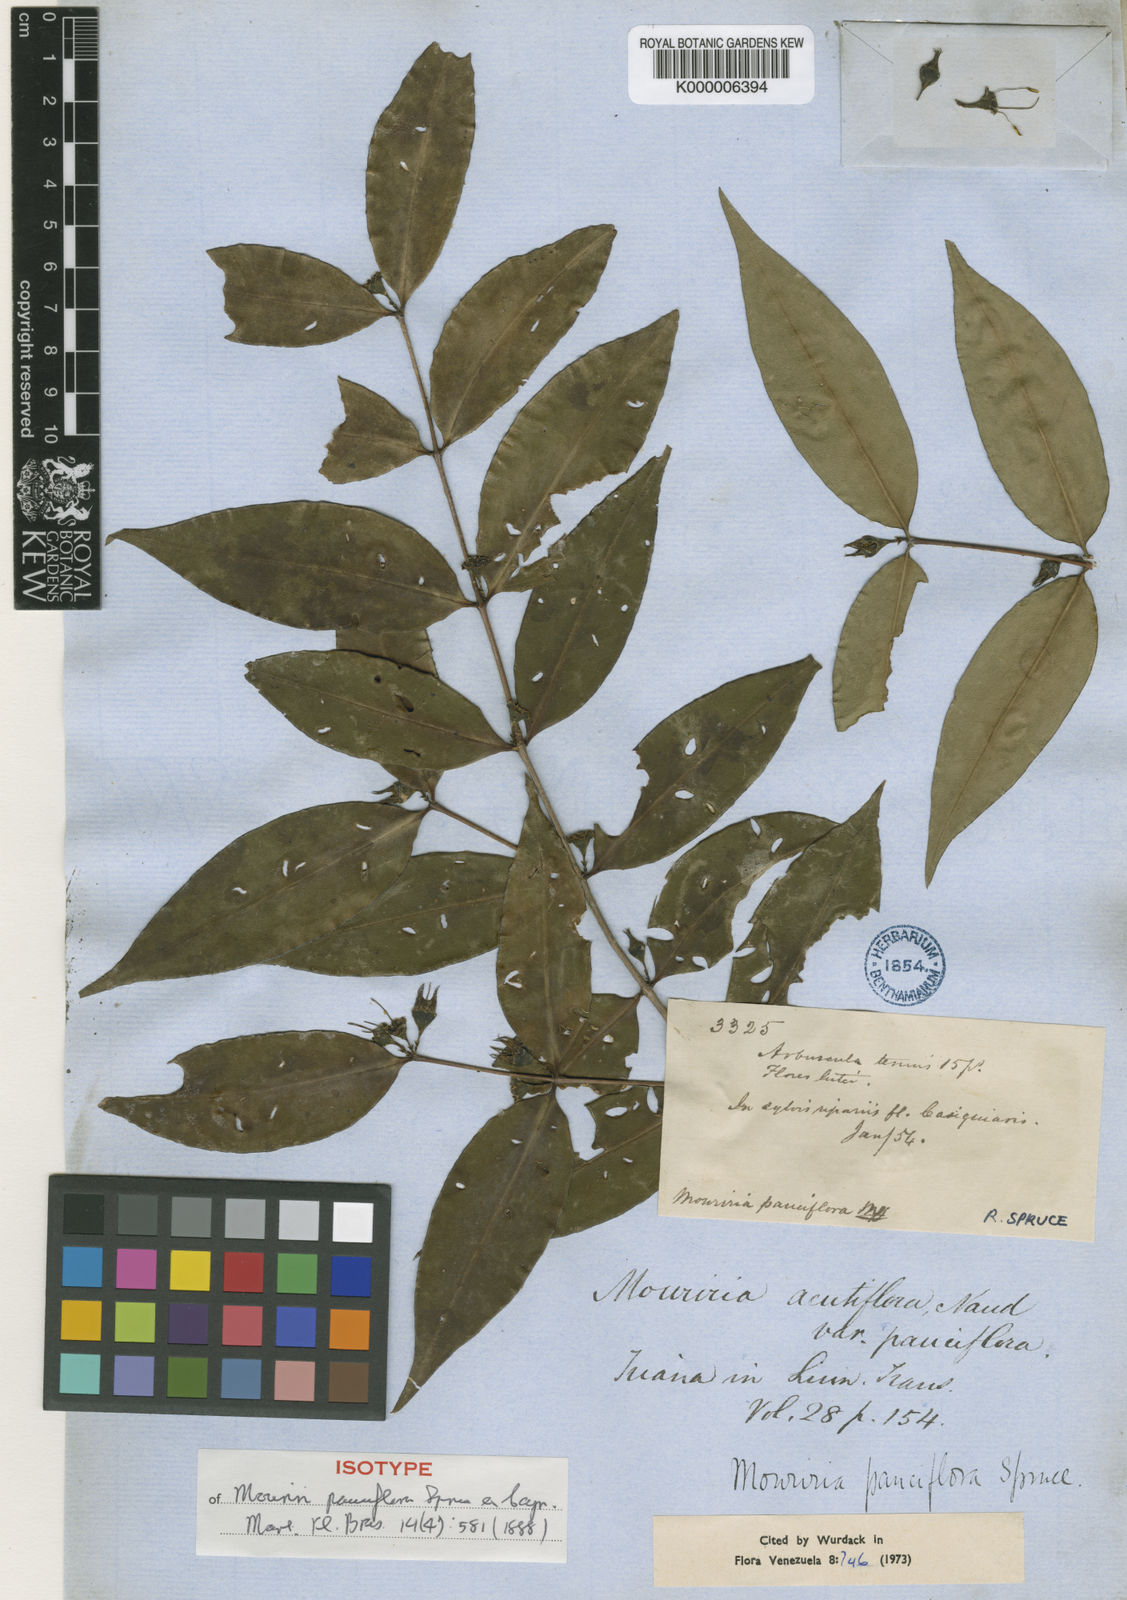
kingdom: Plantae
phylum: Tracheophyta
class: Magnoliopsida
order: Myrtales
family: Melastomataceae
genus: Mouriri
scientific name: Mouriri pauciflora
